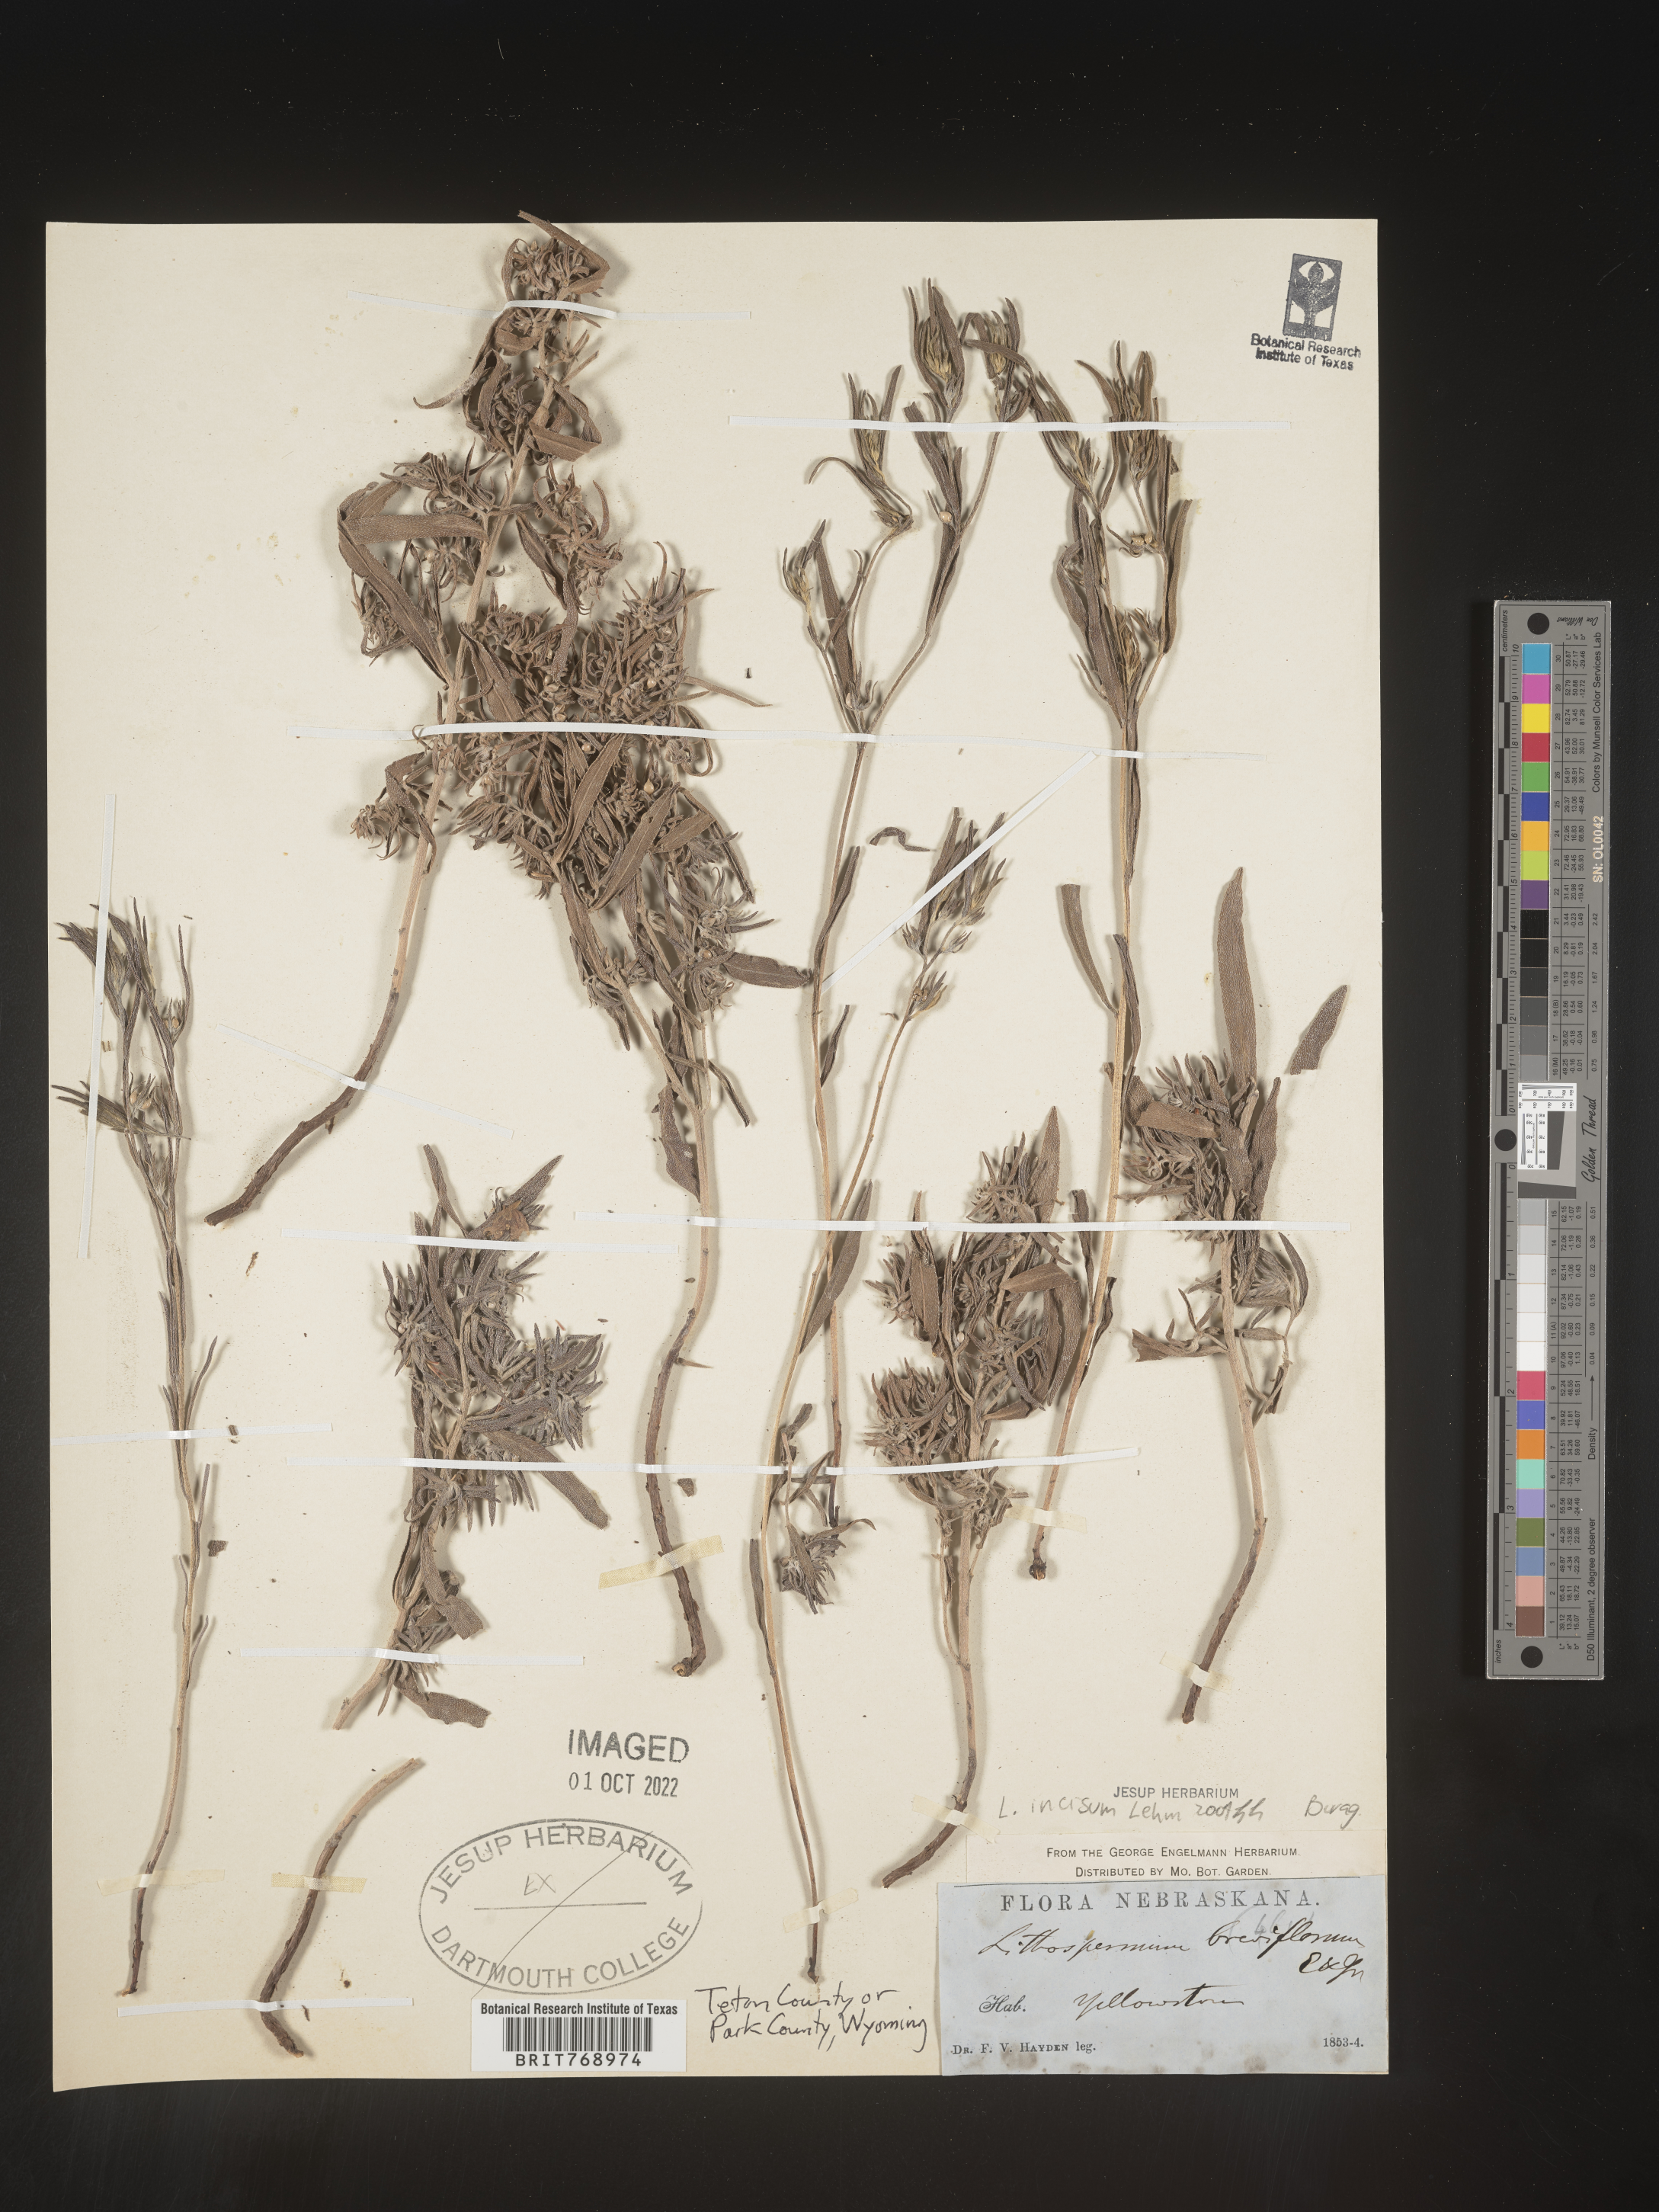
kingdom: Plantae
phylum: Tracheophyta
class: Magnoliopsida
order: Boraginales
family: Boraginaceae
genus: Lithospermum
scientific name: Lithospermum incisum
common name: Fringed gromwell
